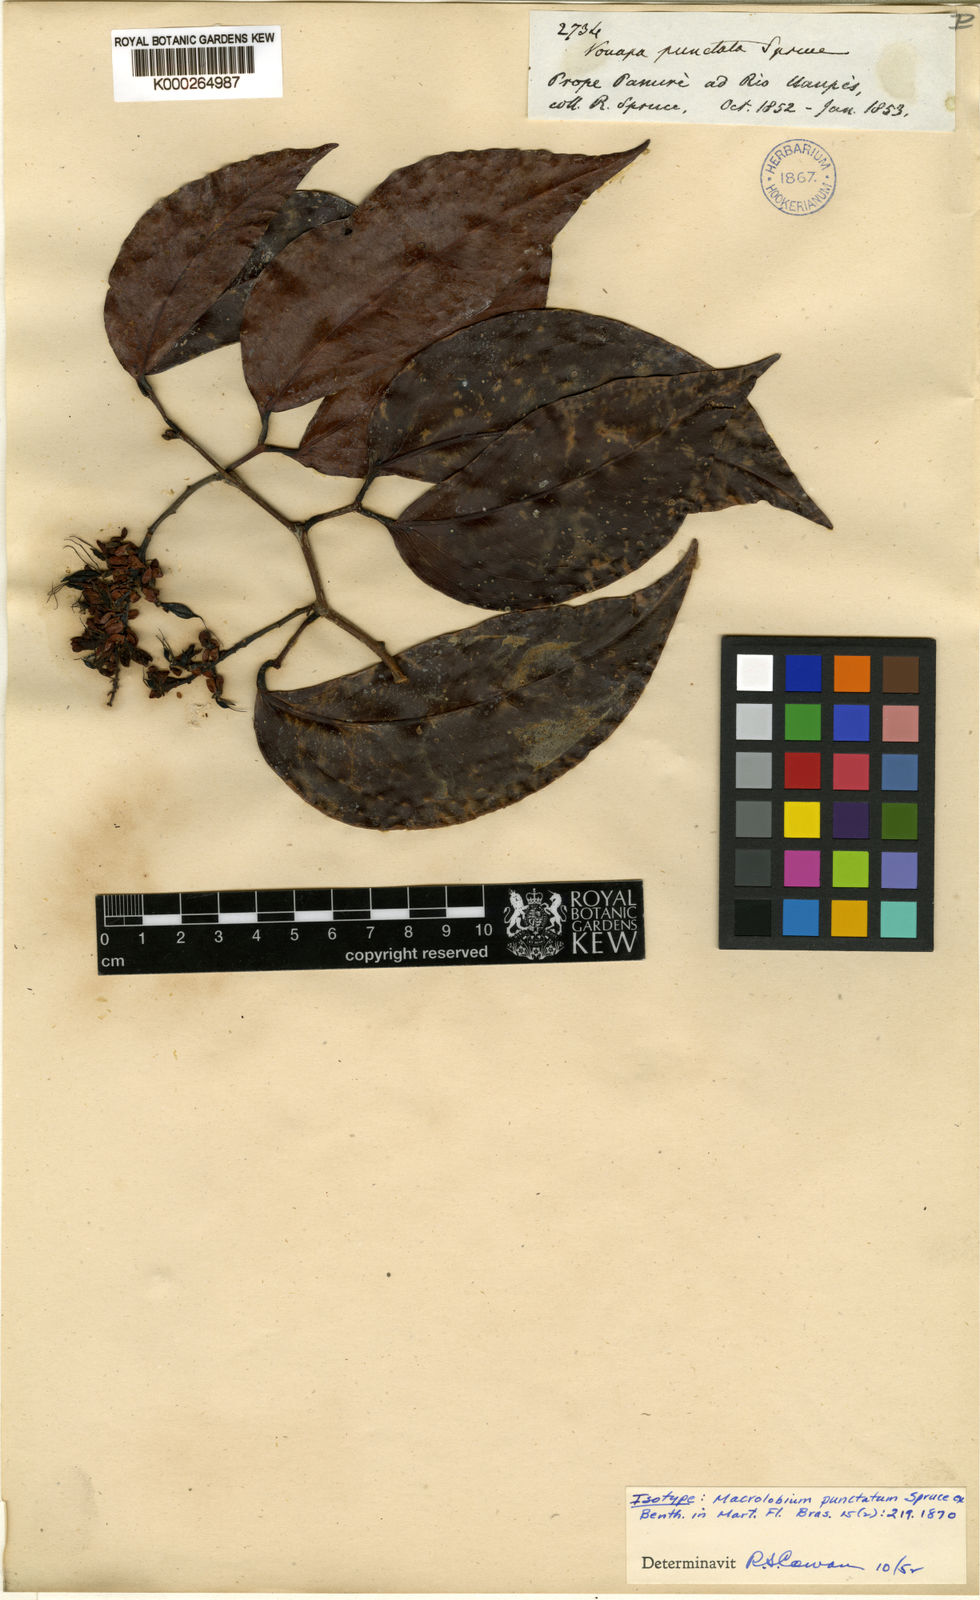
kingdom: Plantae
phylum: Tracheophyta
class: Magnoliopsida
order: Fabales
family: Fabaceae
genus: Macrolobium
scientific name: Macrolobium punctatum
